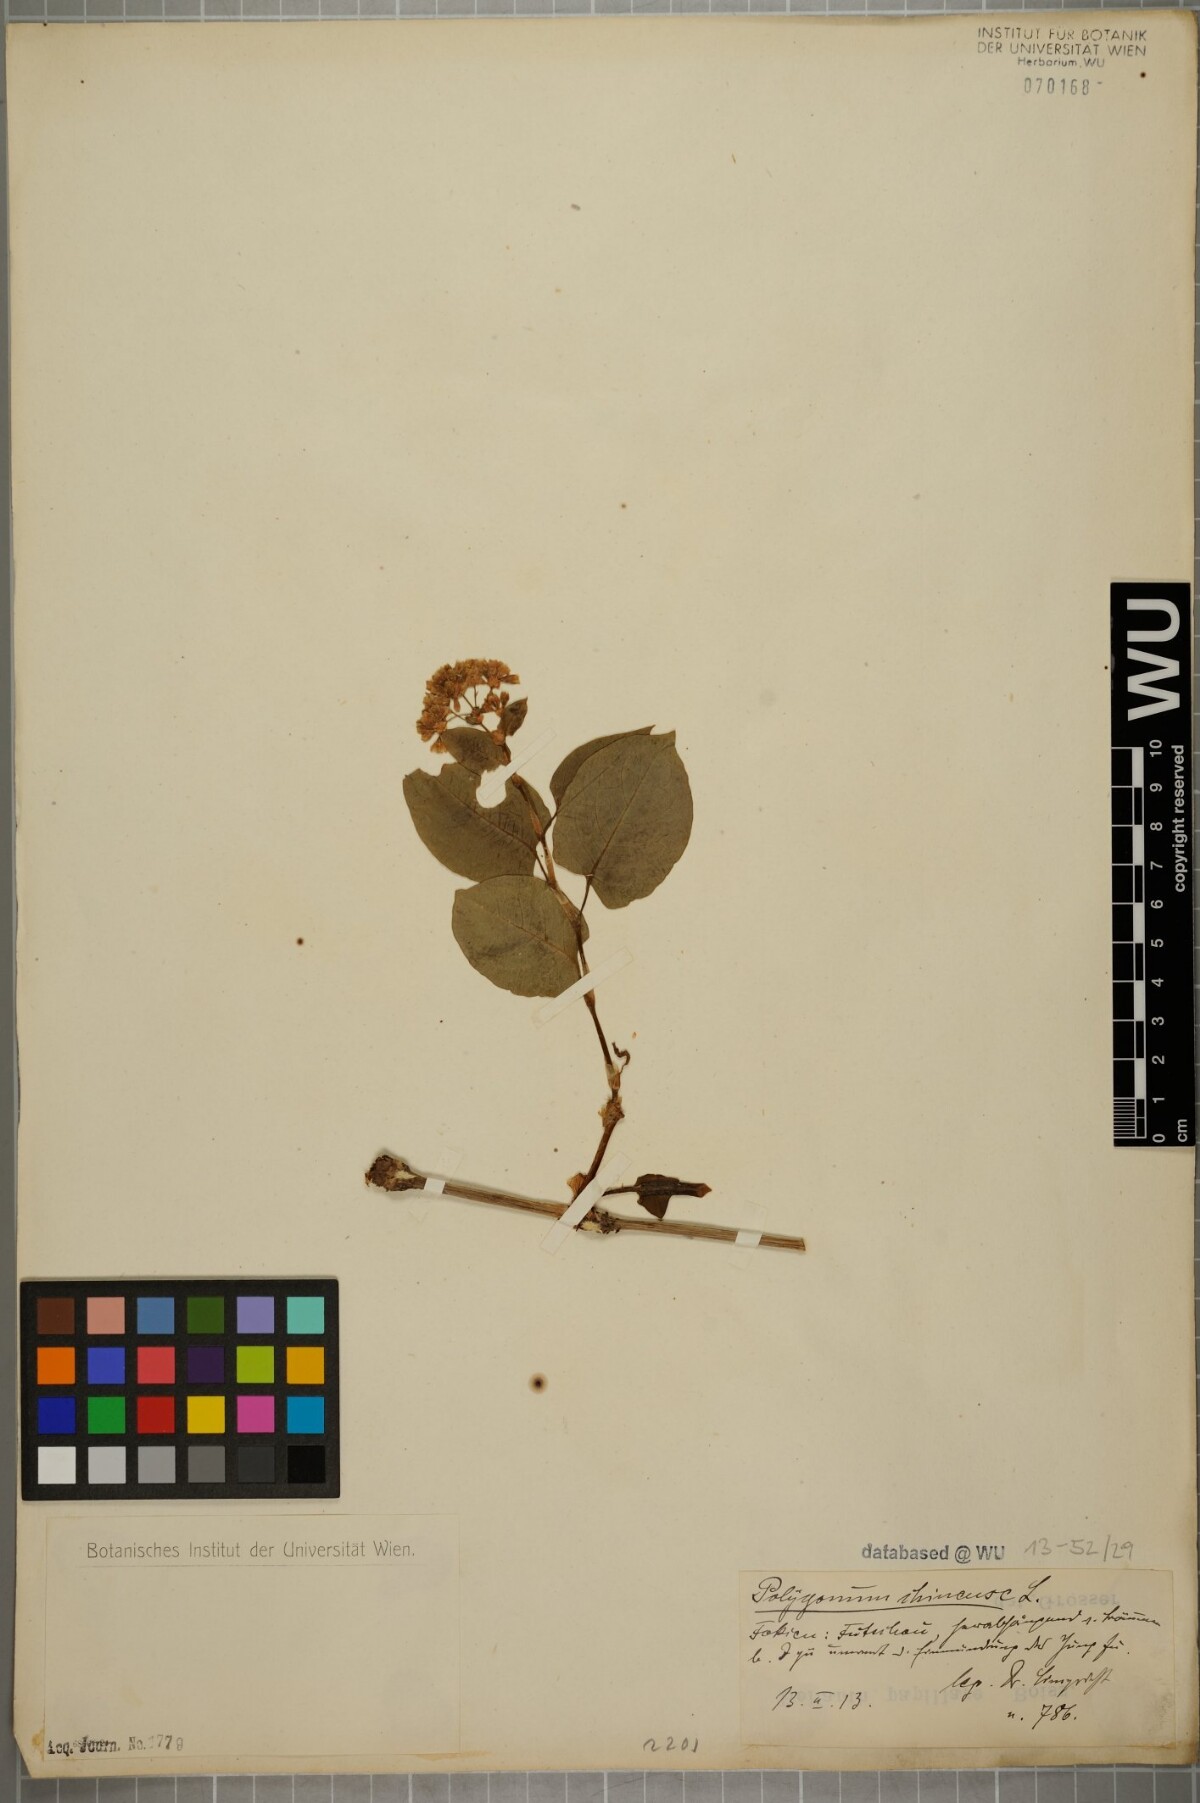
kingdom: Plantae
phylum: Tracheophyta
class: Magnoliopsida
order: Caryophyllales
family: Polygonaceae
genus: Persicaria
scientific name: Persicaria chinensis
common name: Chinese knotweed
